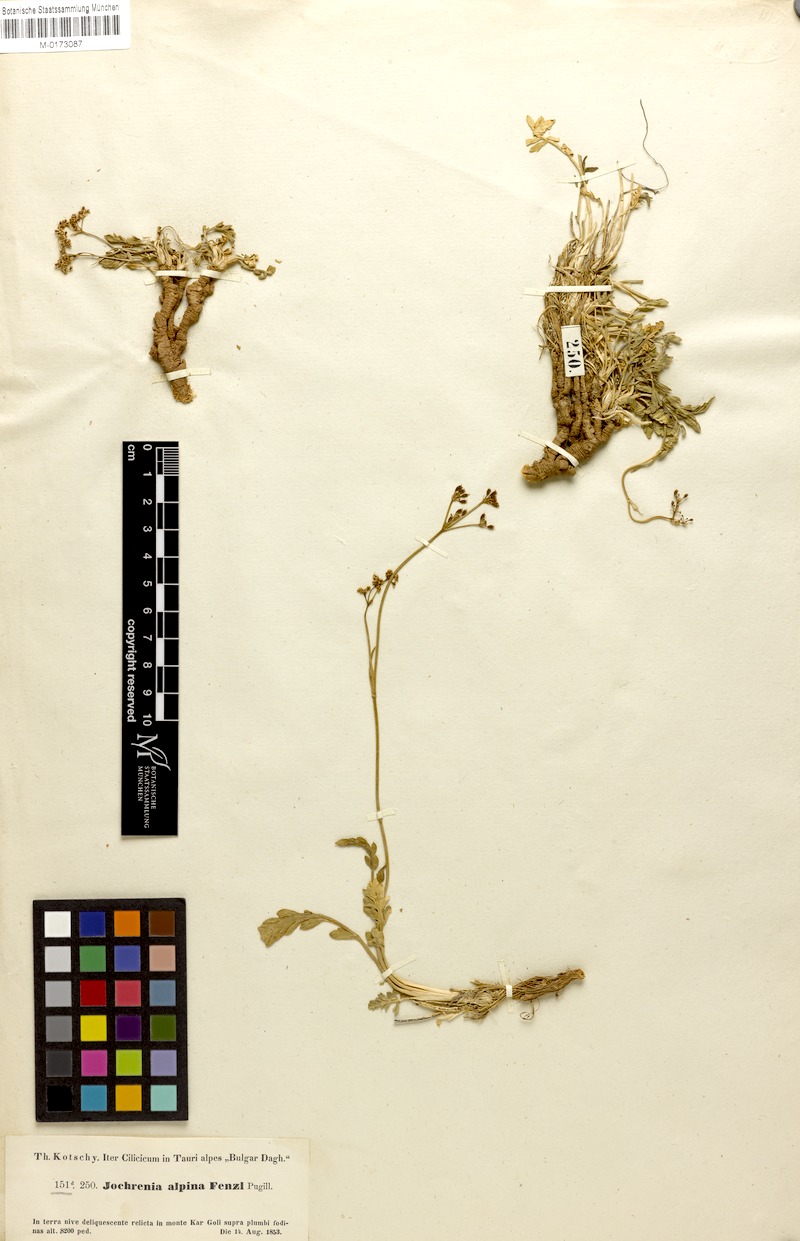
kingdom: Plantae
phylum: Tracheophyta
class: Magnoliopsida
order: Apiales
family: Apiaceae
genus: Dichoropetalum
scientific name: Dichoropetalum alpinum
